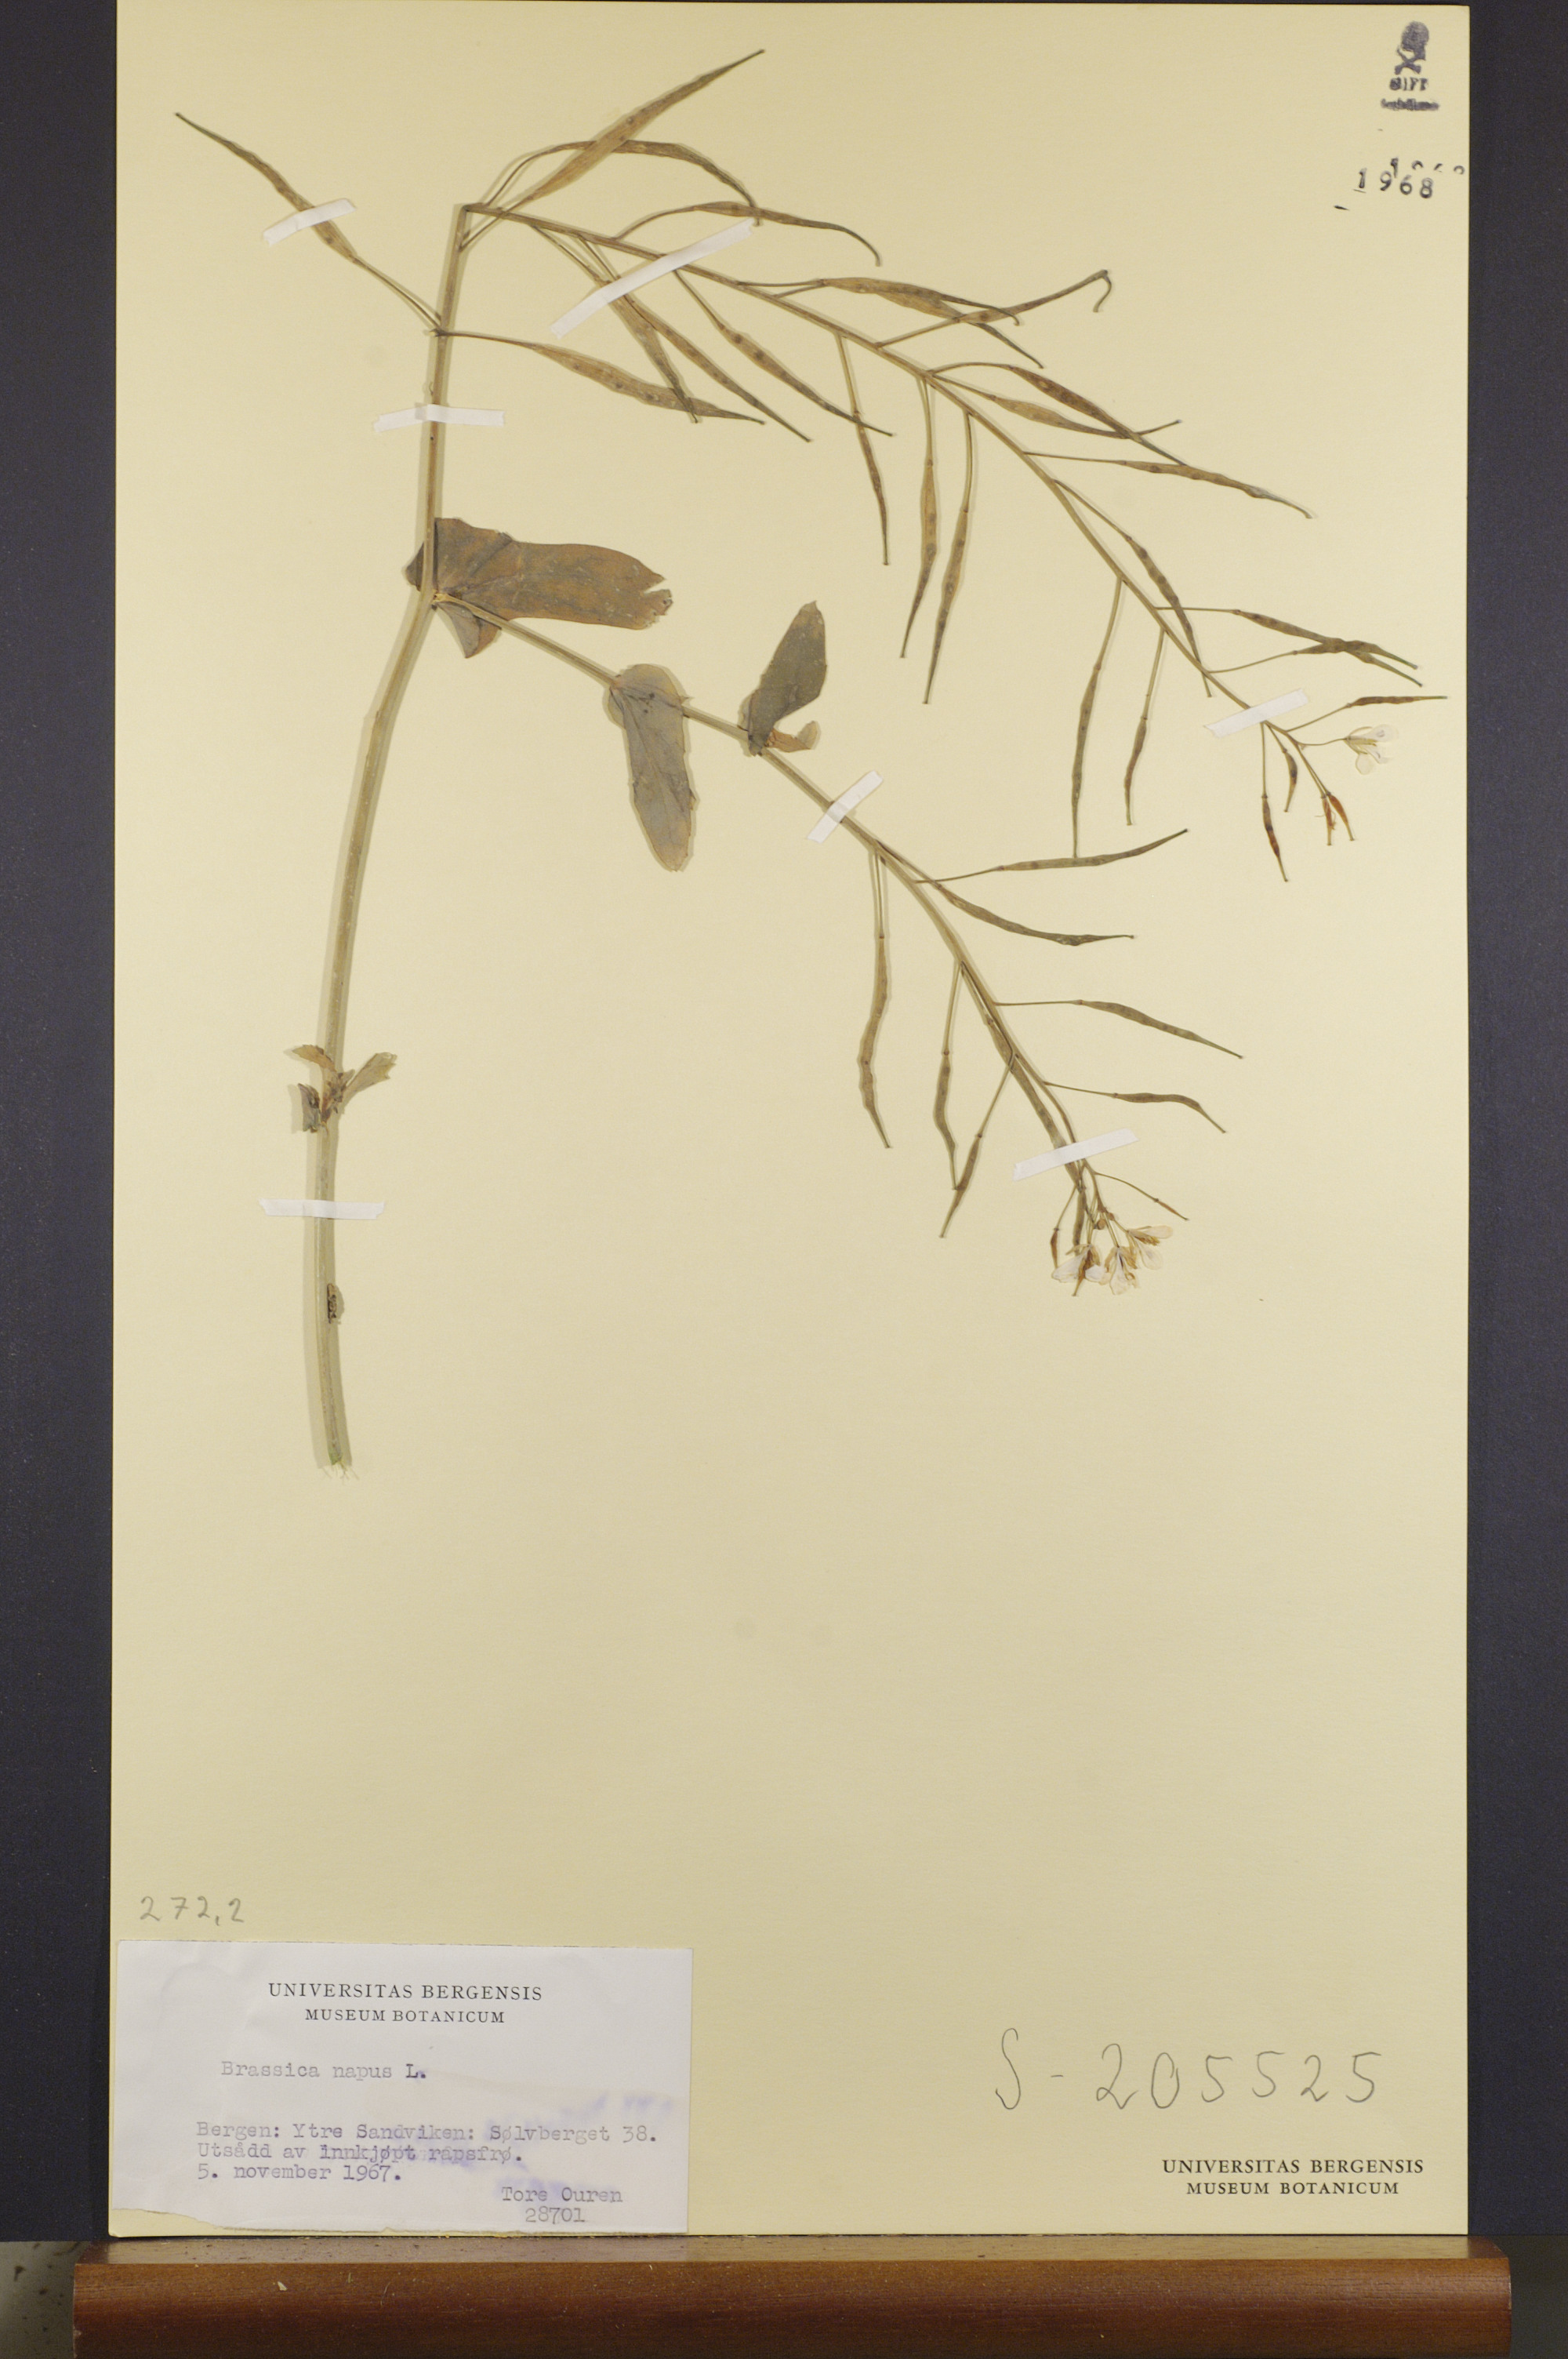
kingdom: Plantae
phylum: Tracheophyta
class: Magnoliopsida
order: Brassicales
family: Brassicaceae
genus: Brassica
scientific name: Brassica napus
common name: Rape
